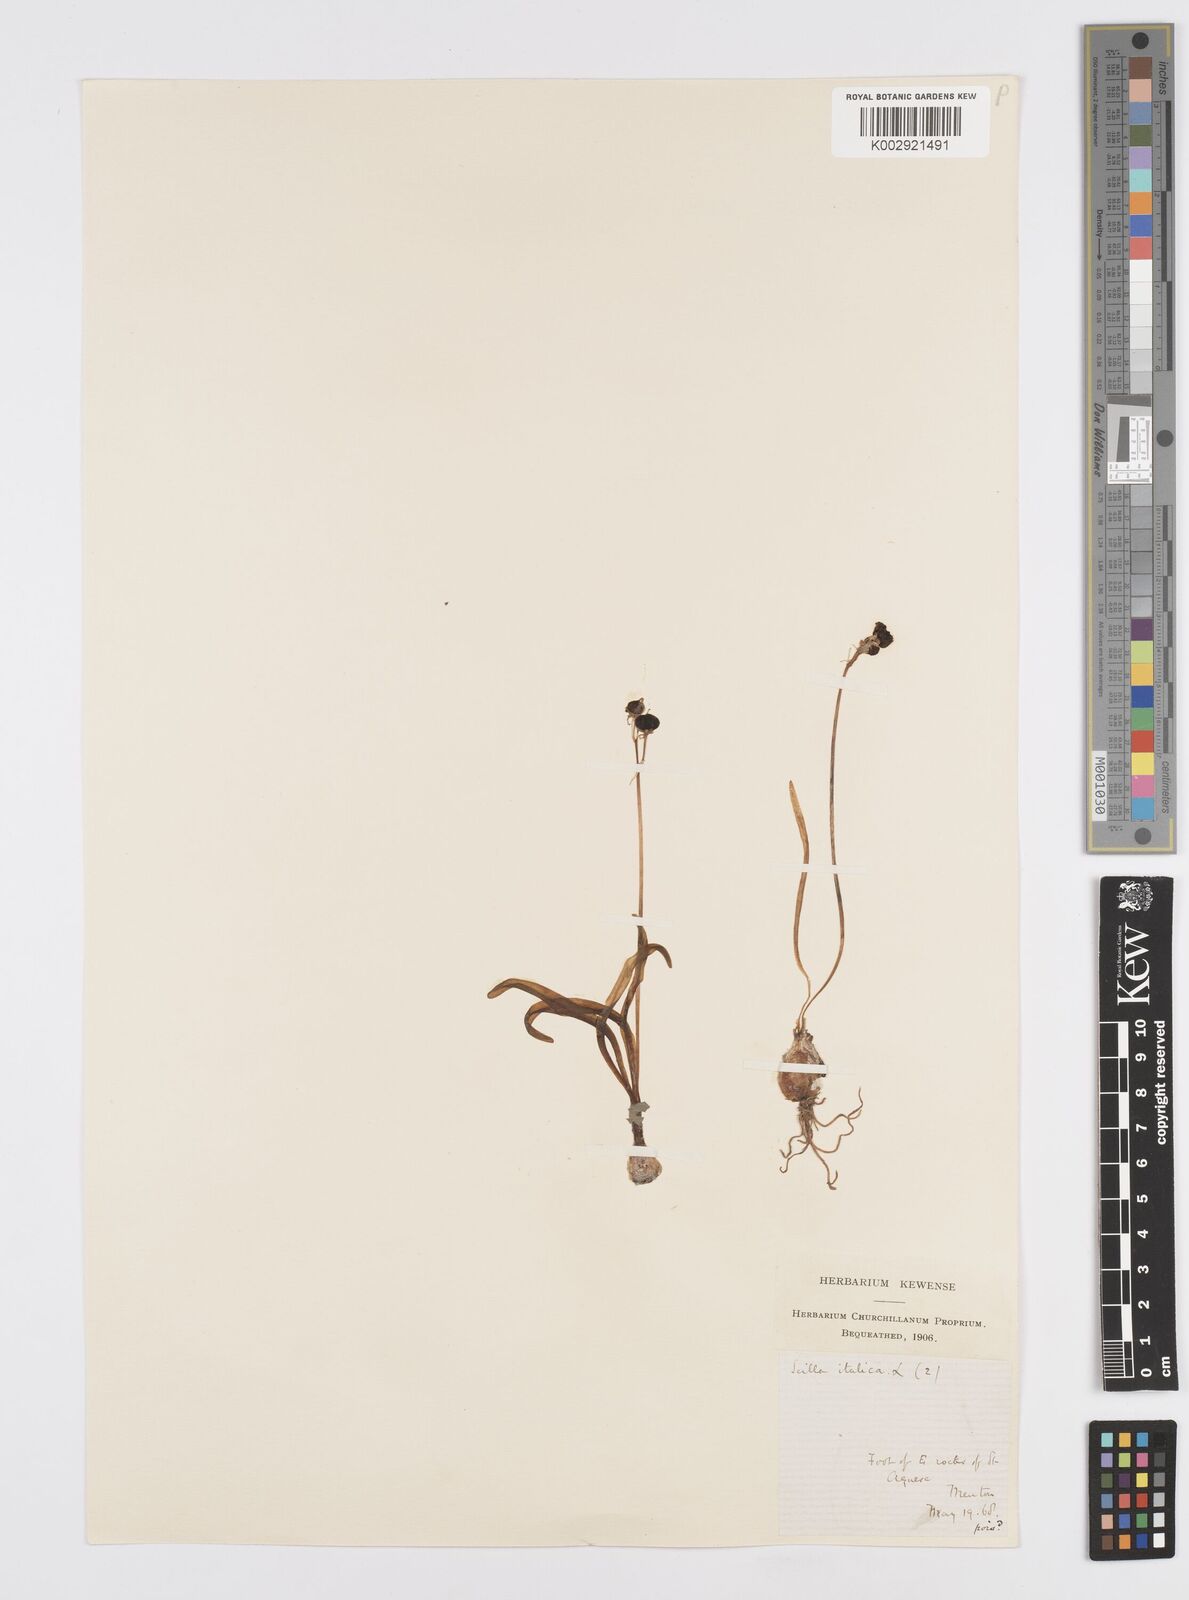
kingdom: Plantae
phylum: Tracheophyta
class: Liliopsida
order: Asparagales
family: Asparagaceae
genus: Hyacinthoides
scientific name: Hyacinthoides italica
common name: Italian bluebell
